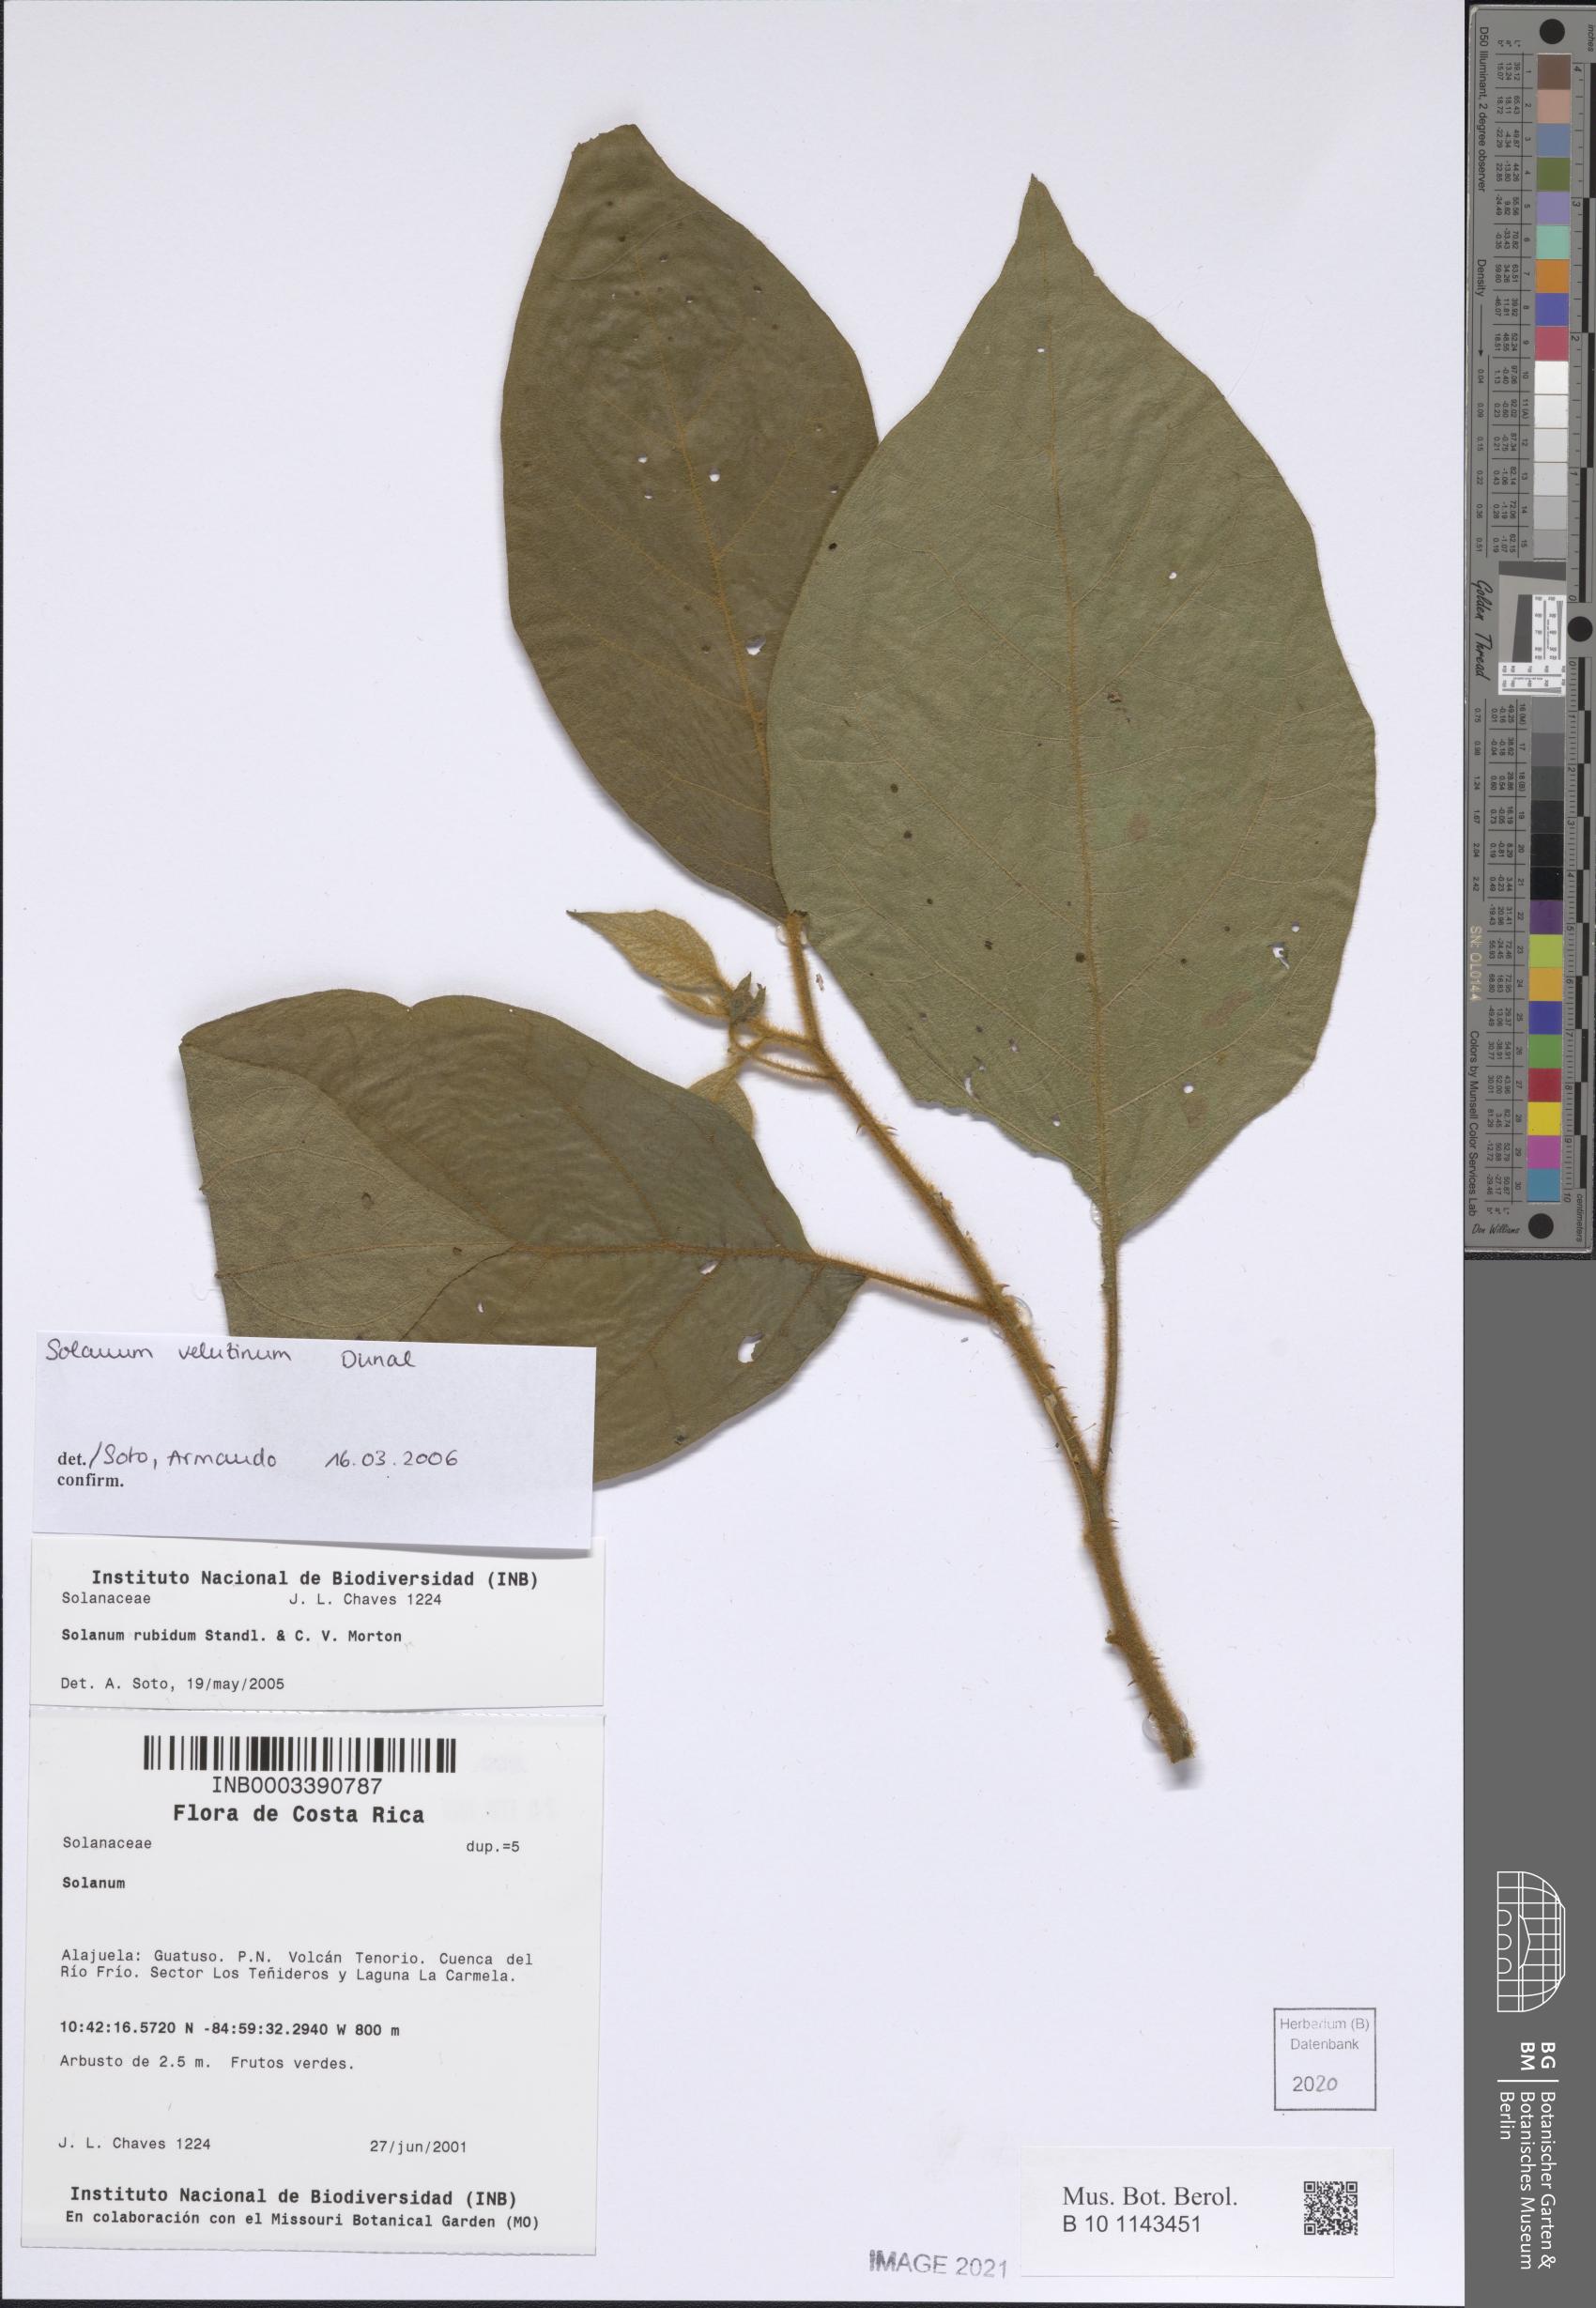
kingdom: Plantae
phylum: Tracheophyta
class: Magnoliopsida
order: Solanales
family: Solanaceae
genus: Solanum
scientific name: Solanum velutinum
